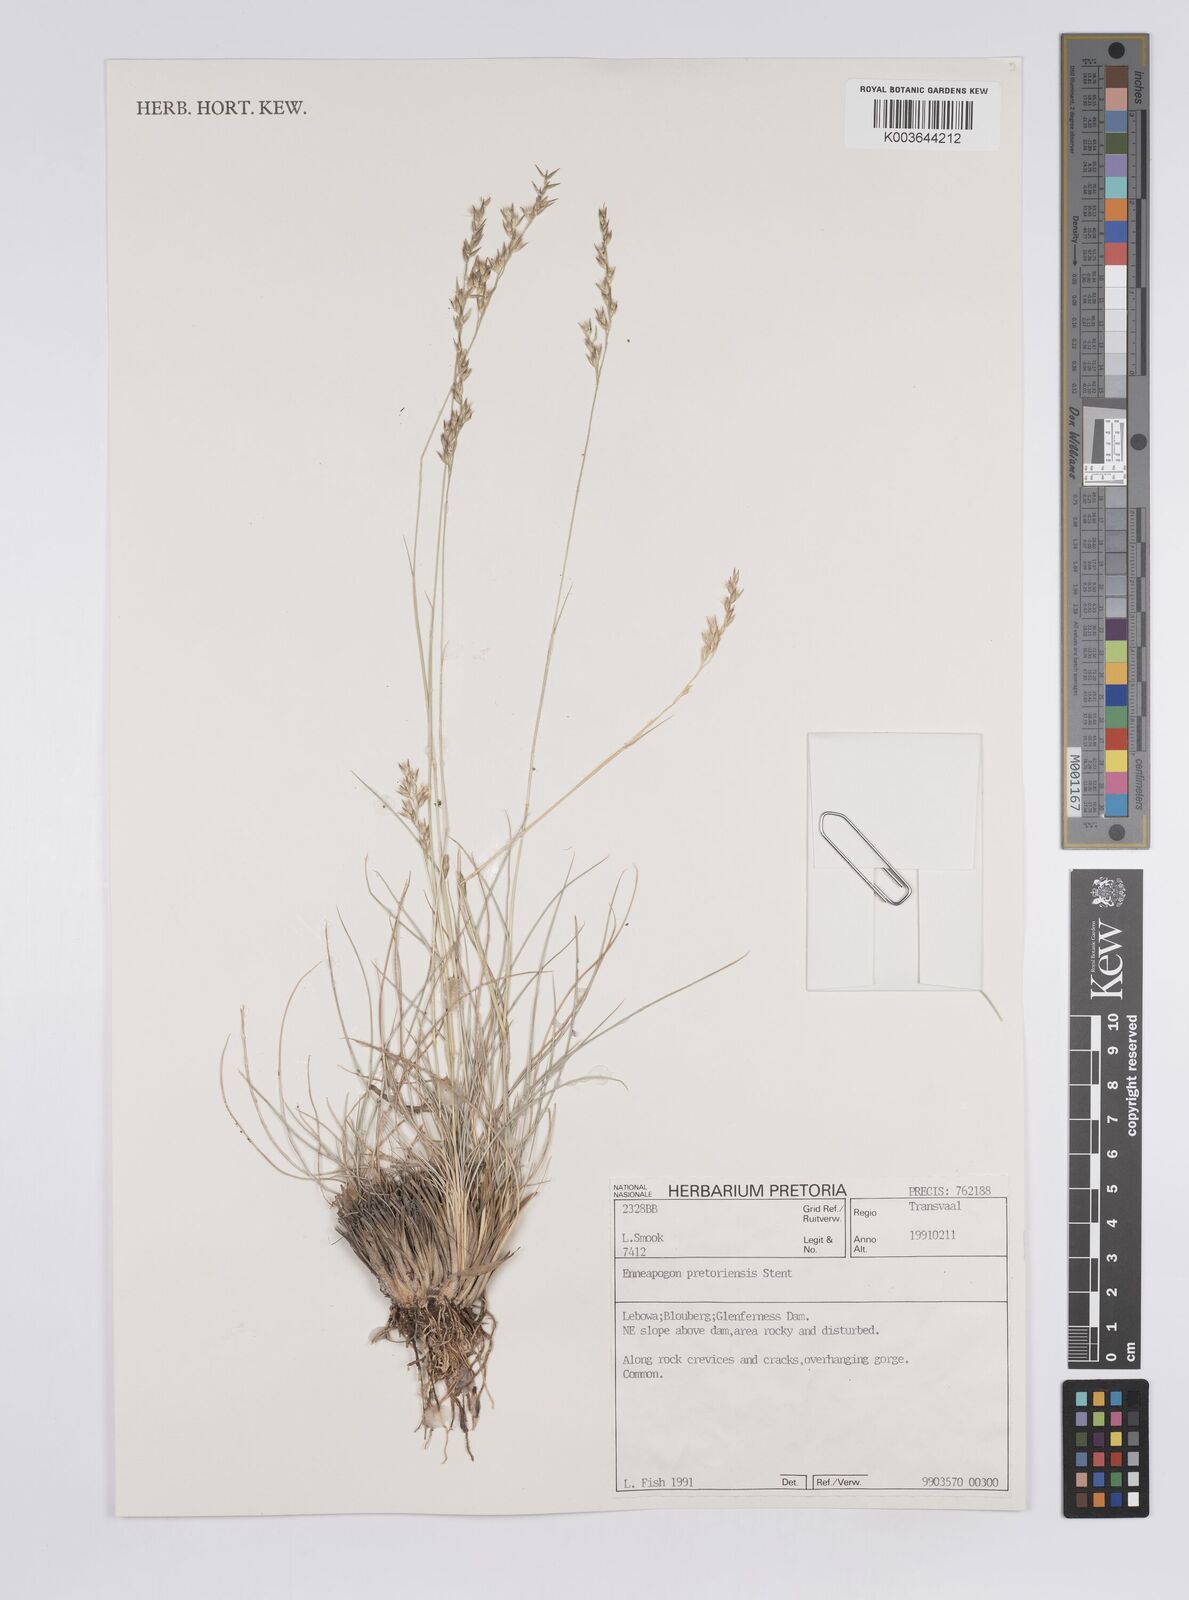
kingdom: Plantae
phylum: Tracheophyta
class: Liliopsida
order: Poales
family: Poaceae
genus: Enneapogon
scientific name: Enneapogon pretoriensis
